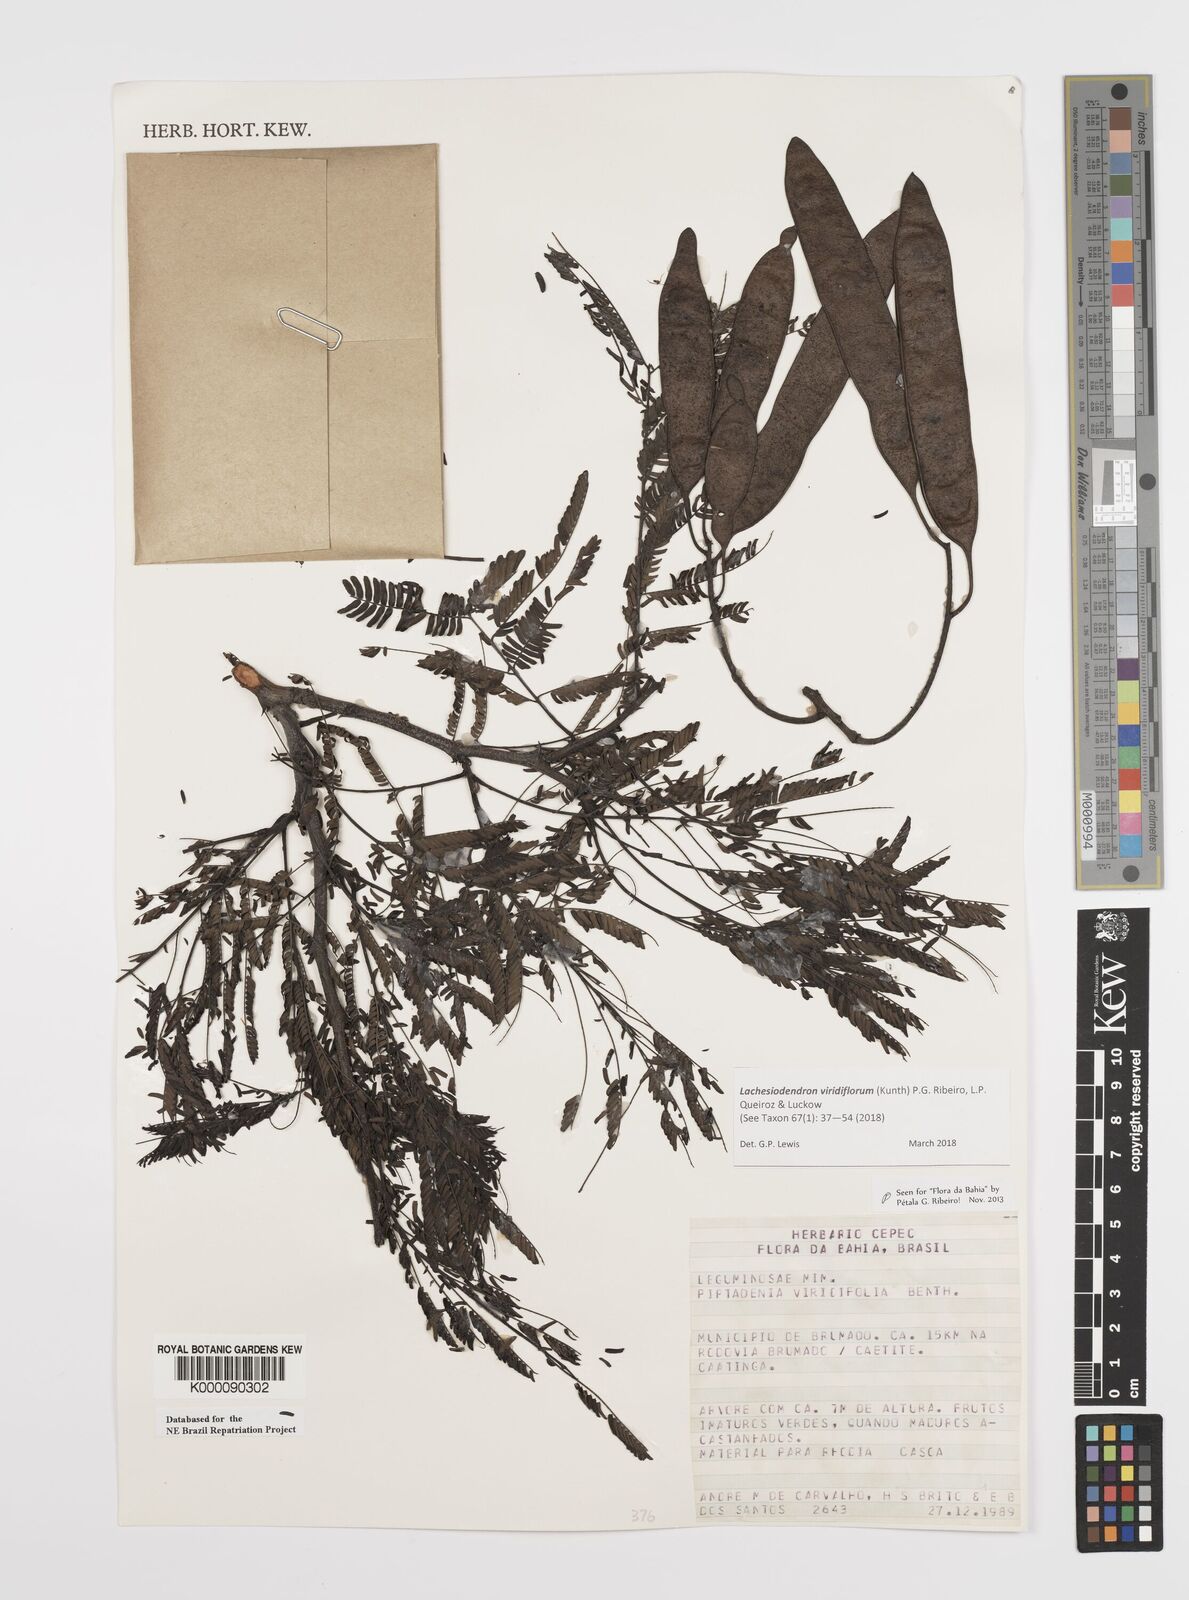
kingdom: Plantae
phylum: Tracheophyta
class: Magnoliopsida
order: Fabales
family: Fabaceae
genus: Lachesiodendron
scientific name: Lachesiodendron viridiflorum
